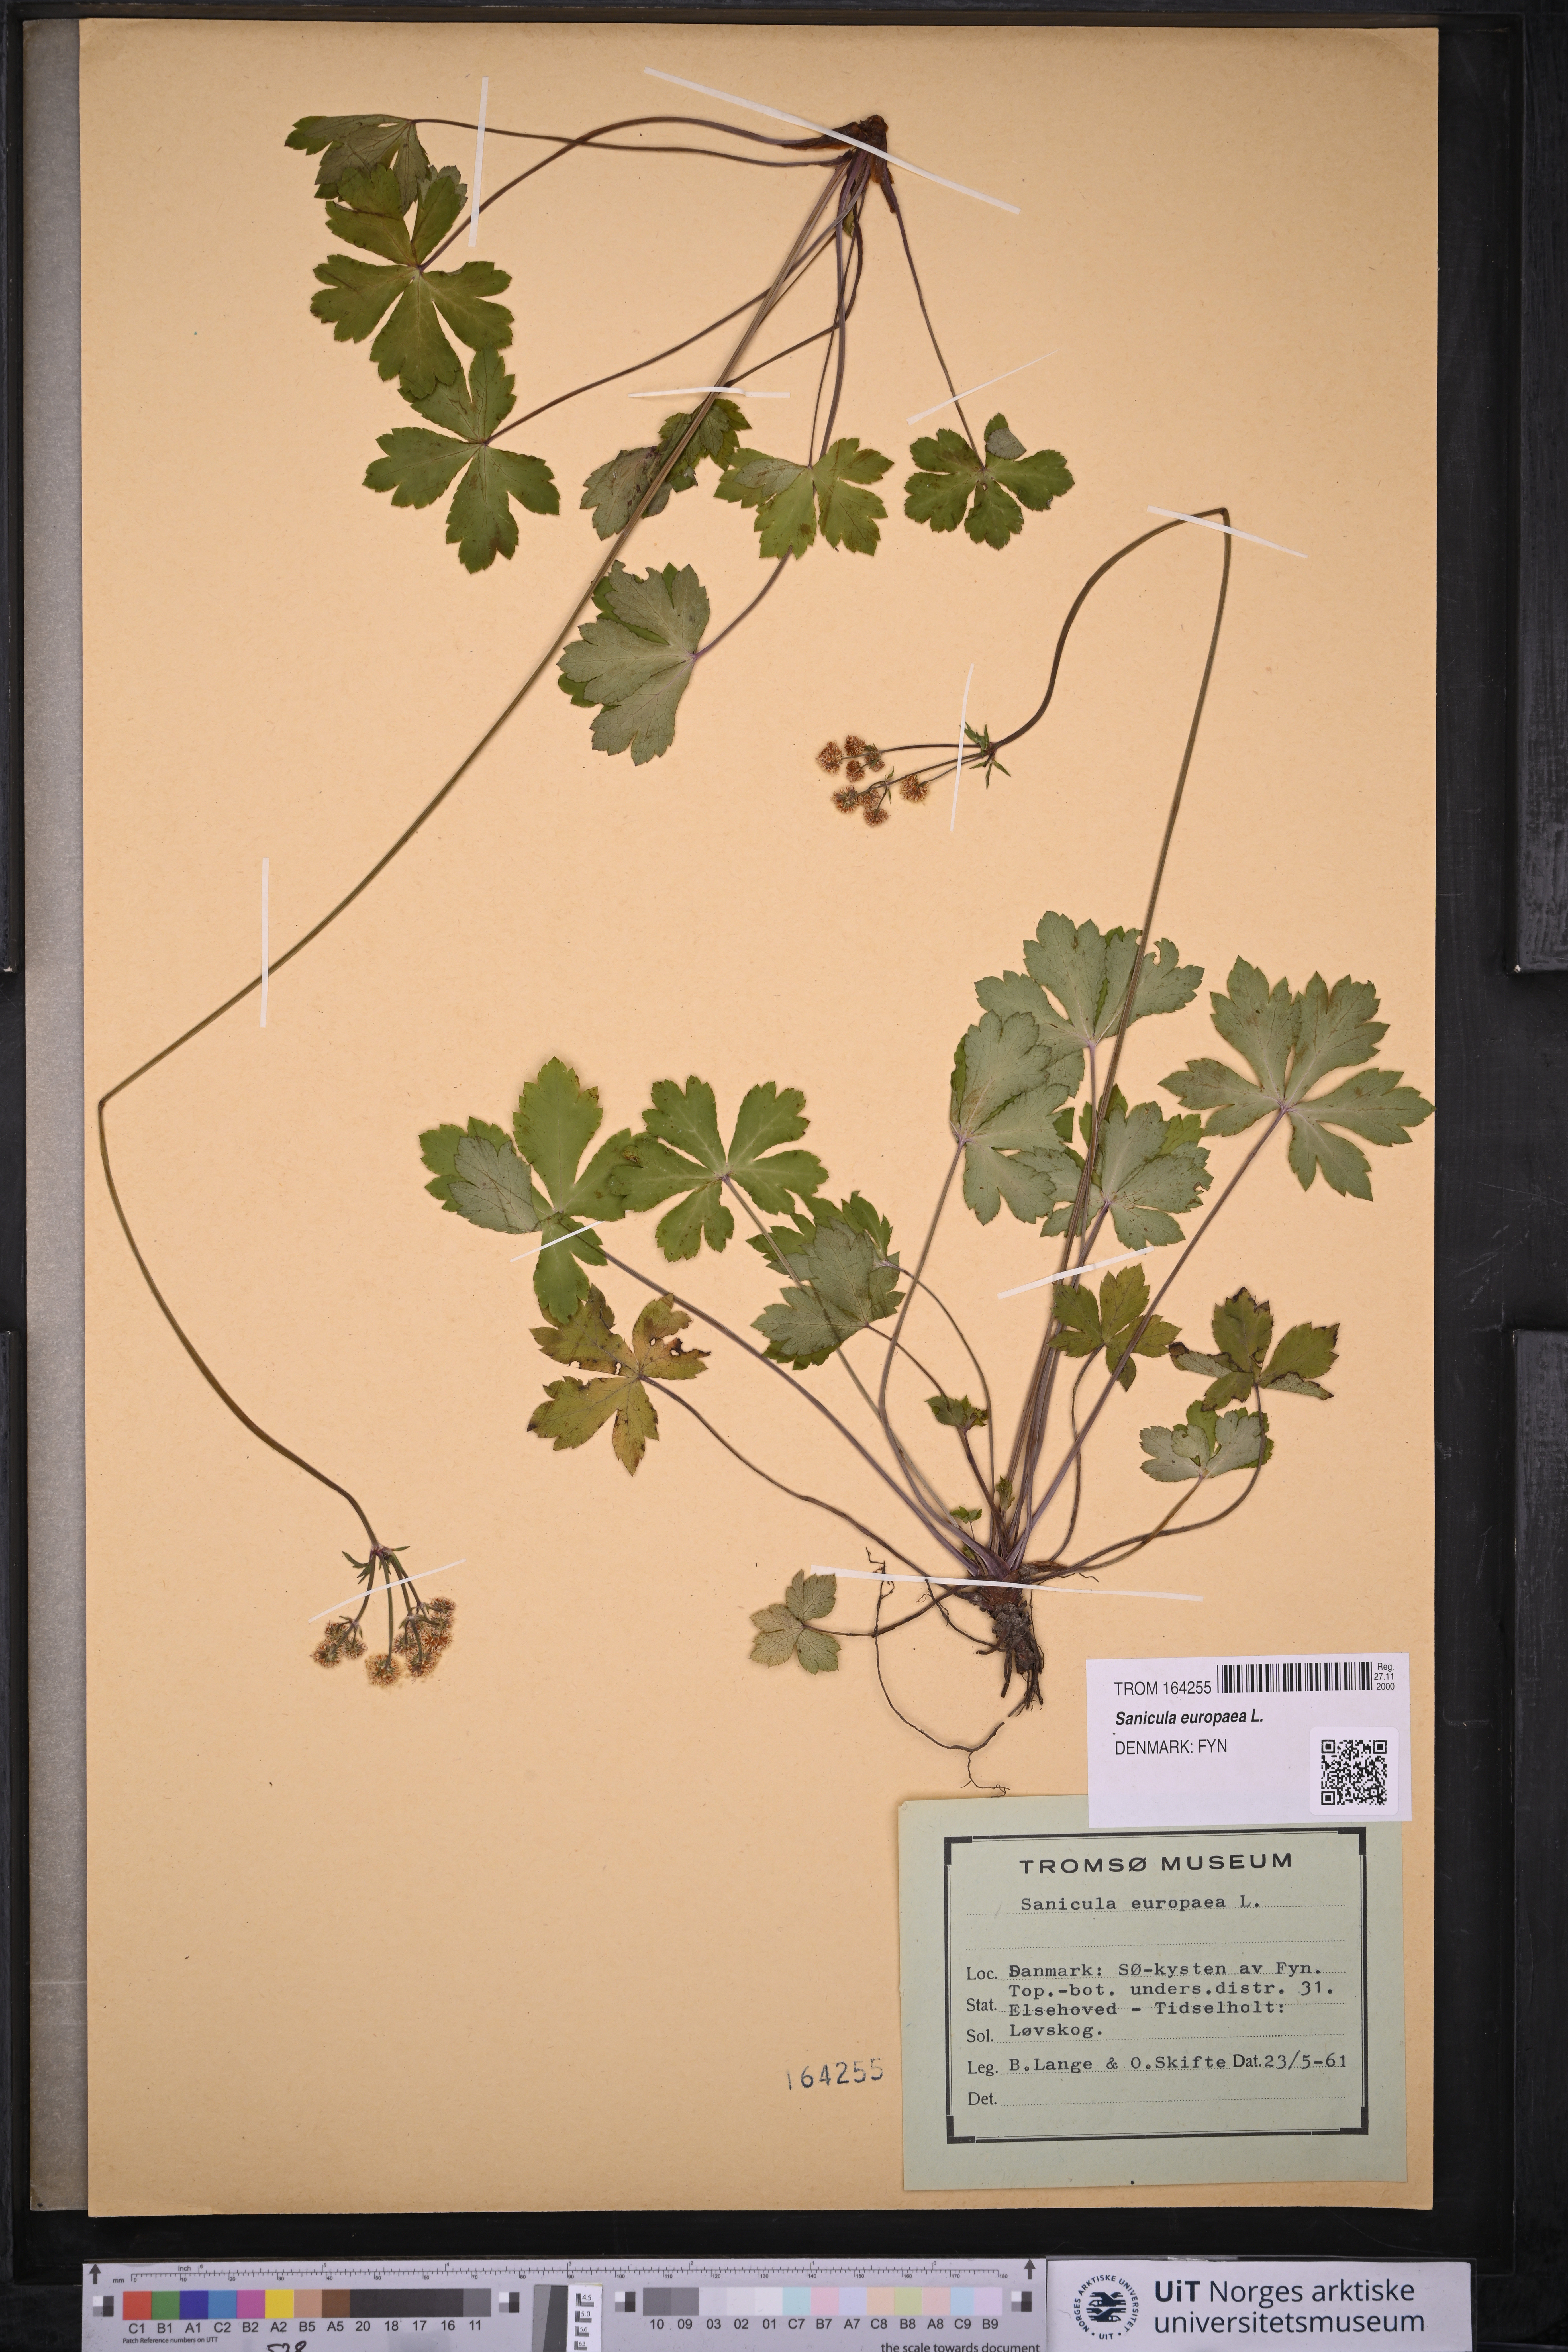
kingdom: Plantae
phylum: Tracheophyta
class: Magnoliopsida
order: Apiales
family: Apiaceae
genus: Sanicula
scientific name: Sanicula europaea
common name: Sanicle
